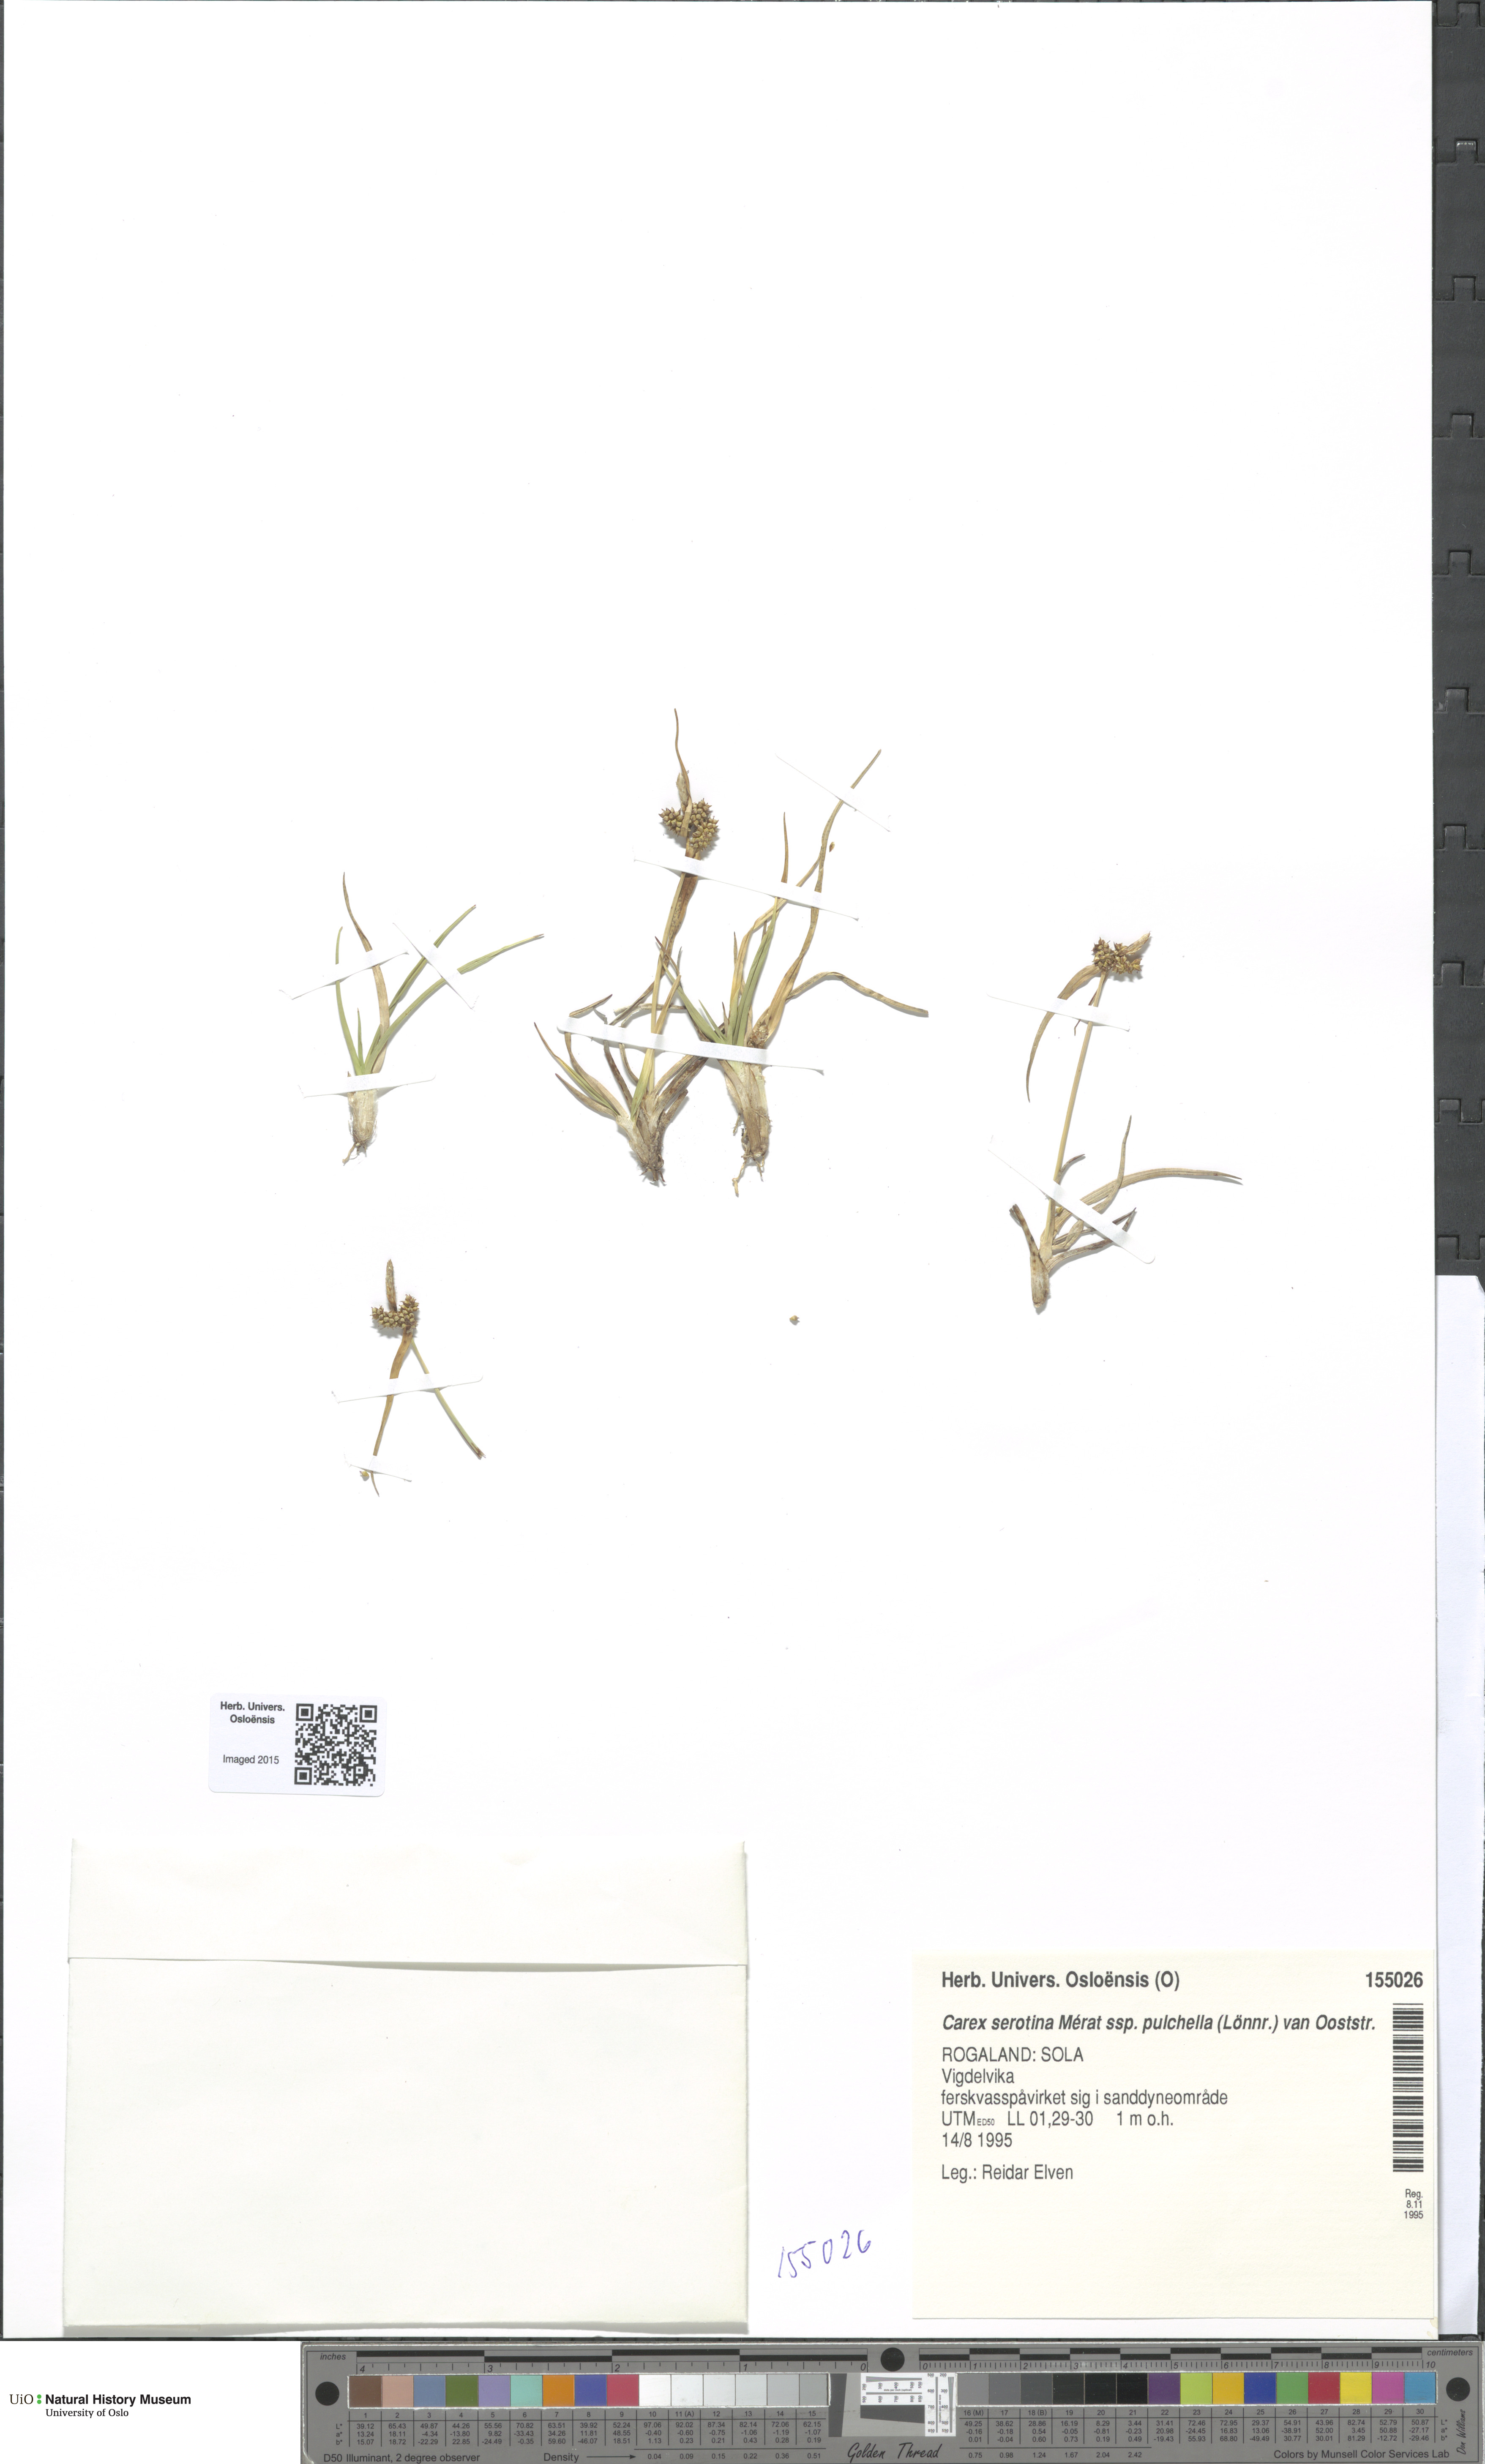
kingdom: Plantae
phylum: Tracheophyta
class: Liliopsida
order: Poales
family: Cyperaceae
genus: Carex
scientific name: Carex oederi
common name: Common & small-fruited yellow-sedge
